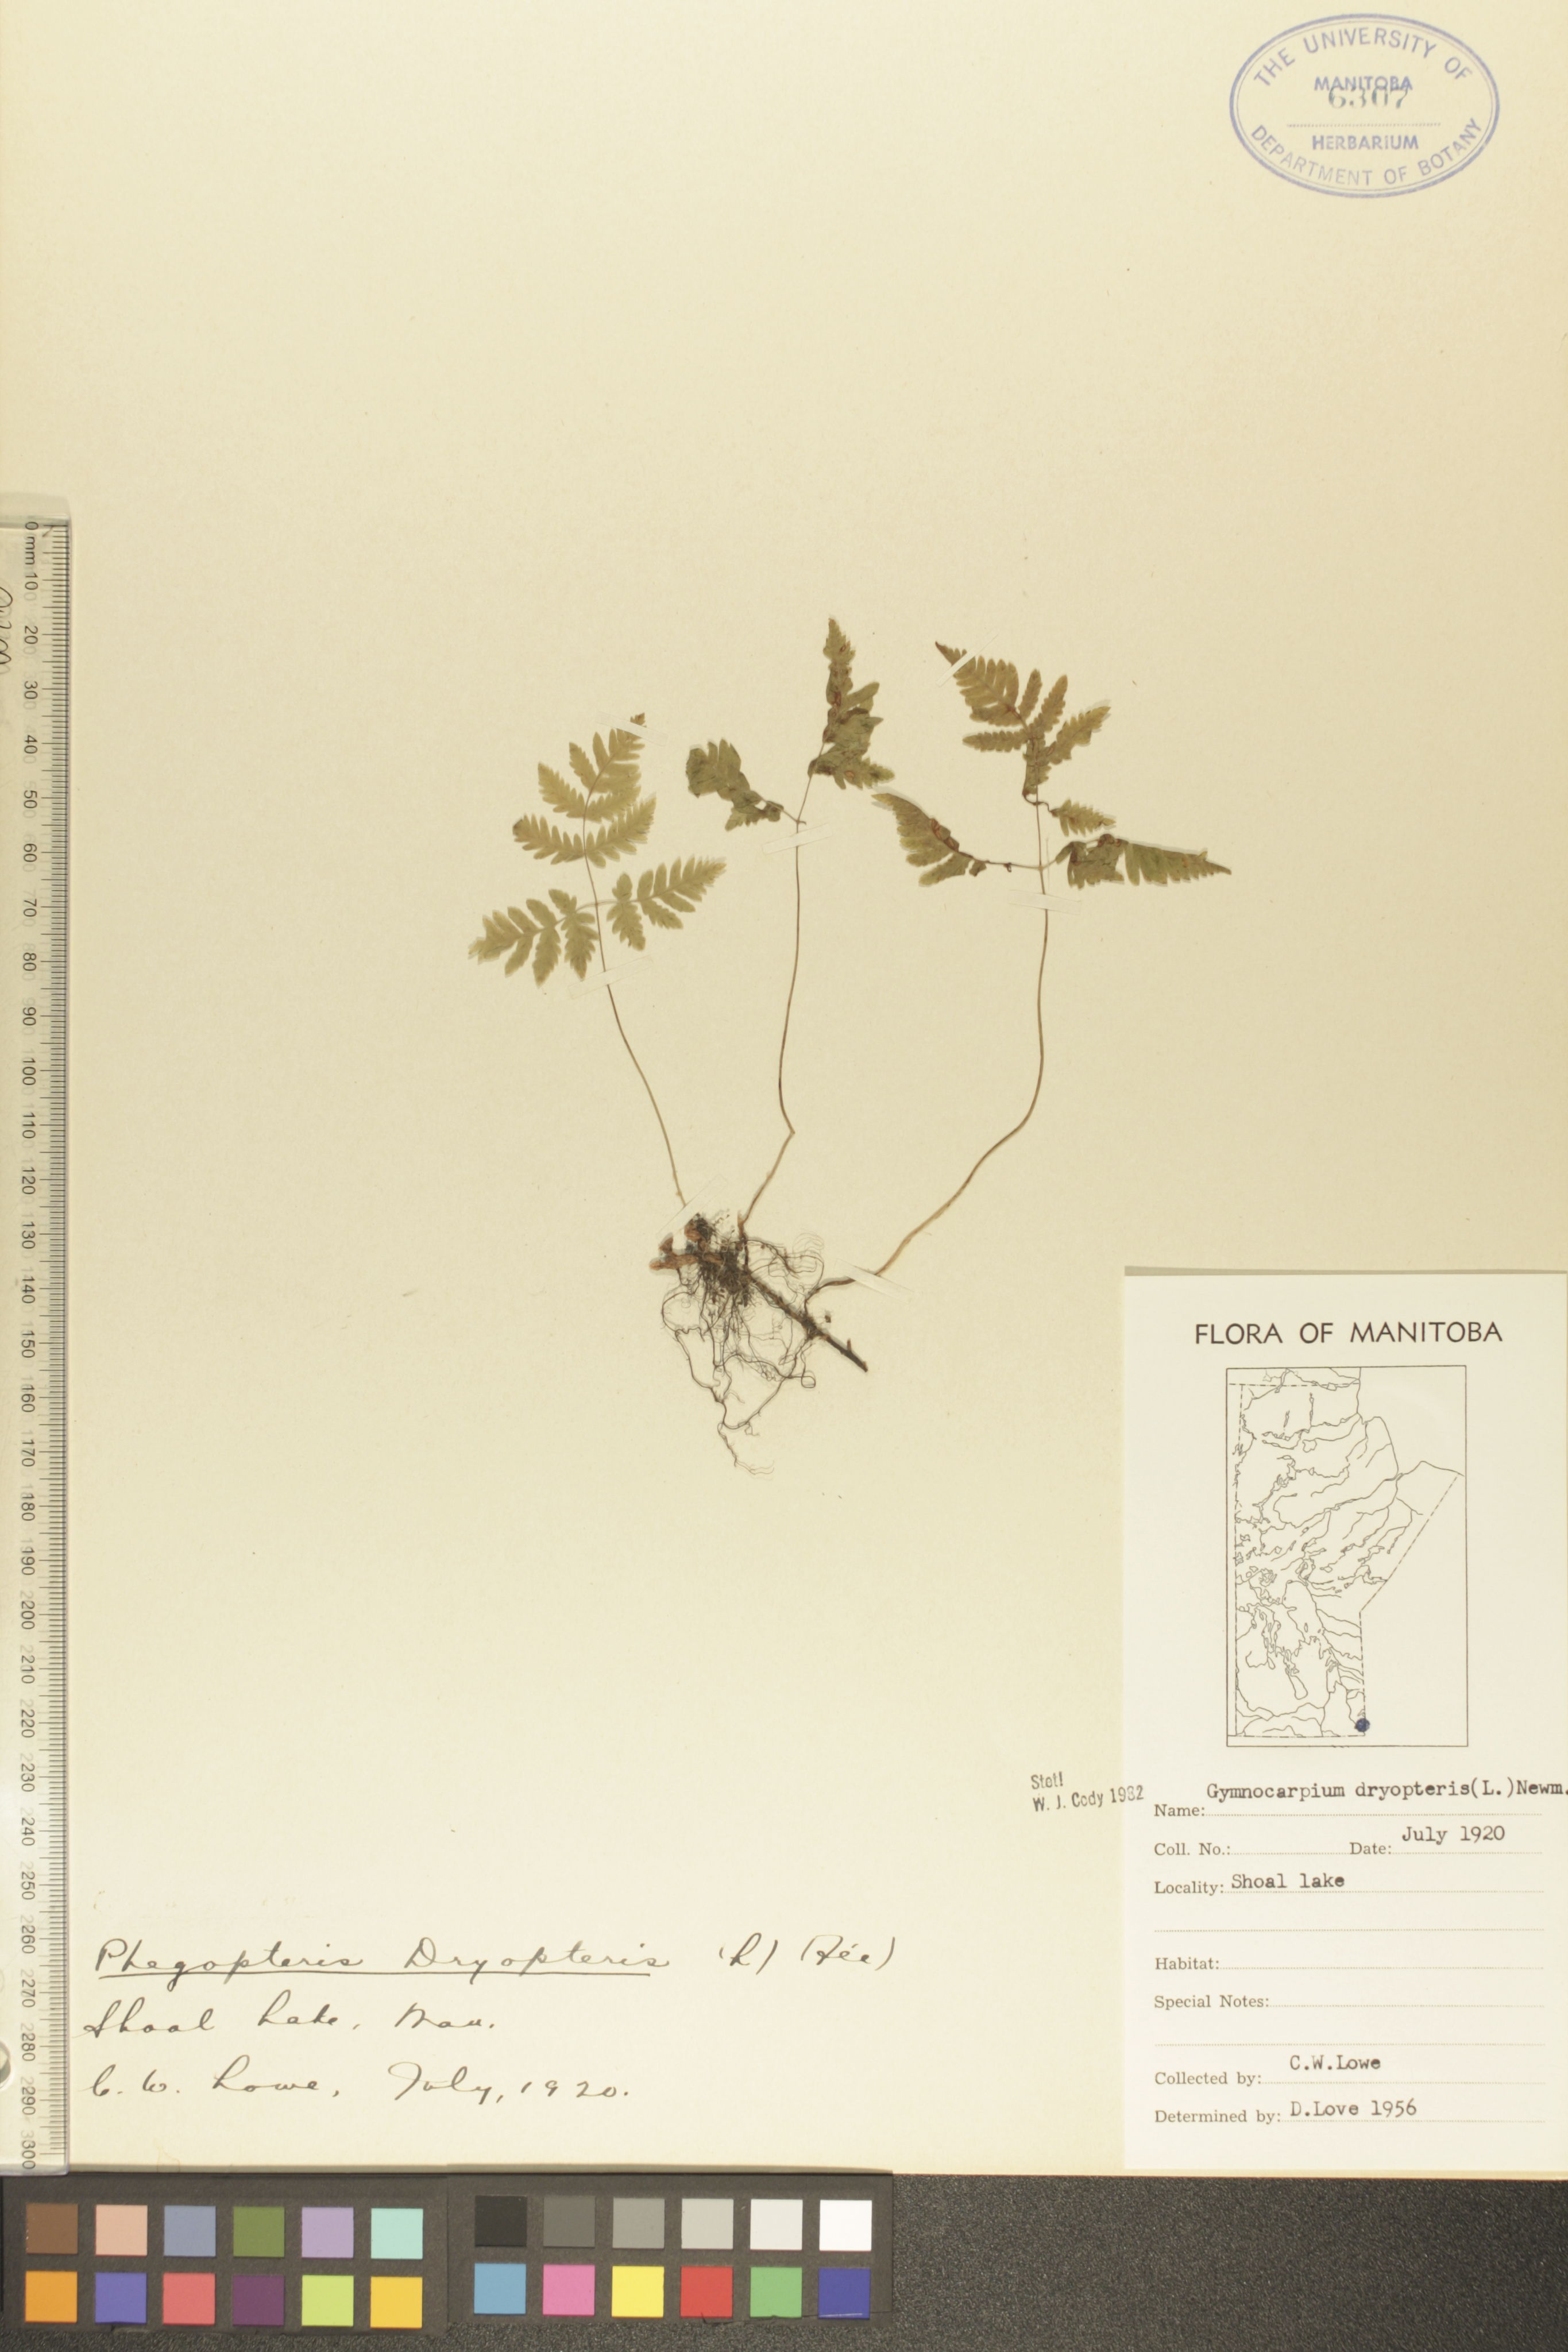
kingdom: Plantae
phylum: Tracheophyta
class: Polypodiopsida
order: Polypodiales
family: Cystopteridaceae
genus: Gymnocarpium
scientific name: Gymnocarpium dryopteris
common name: Oak fern
